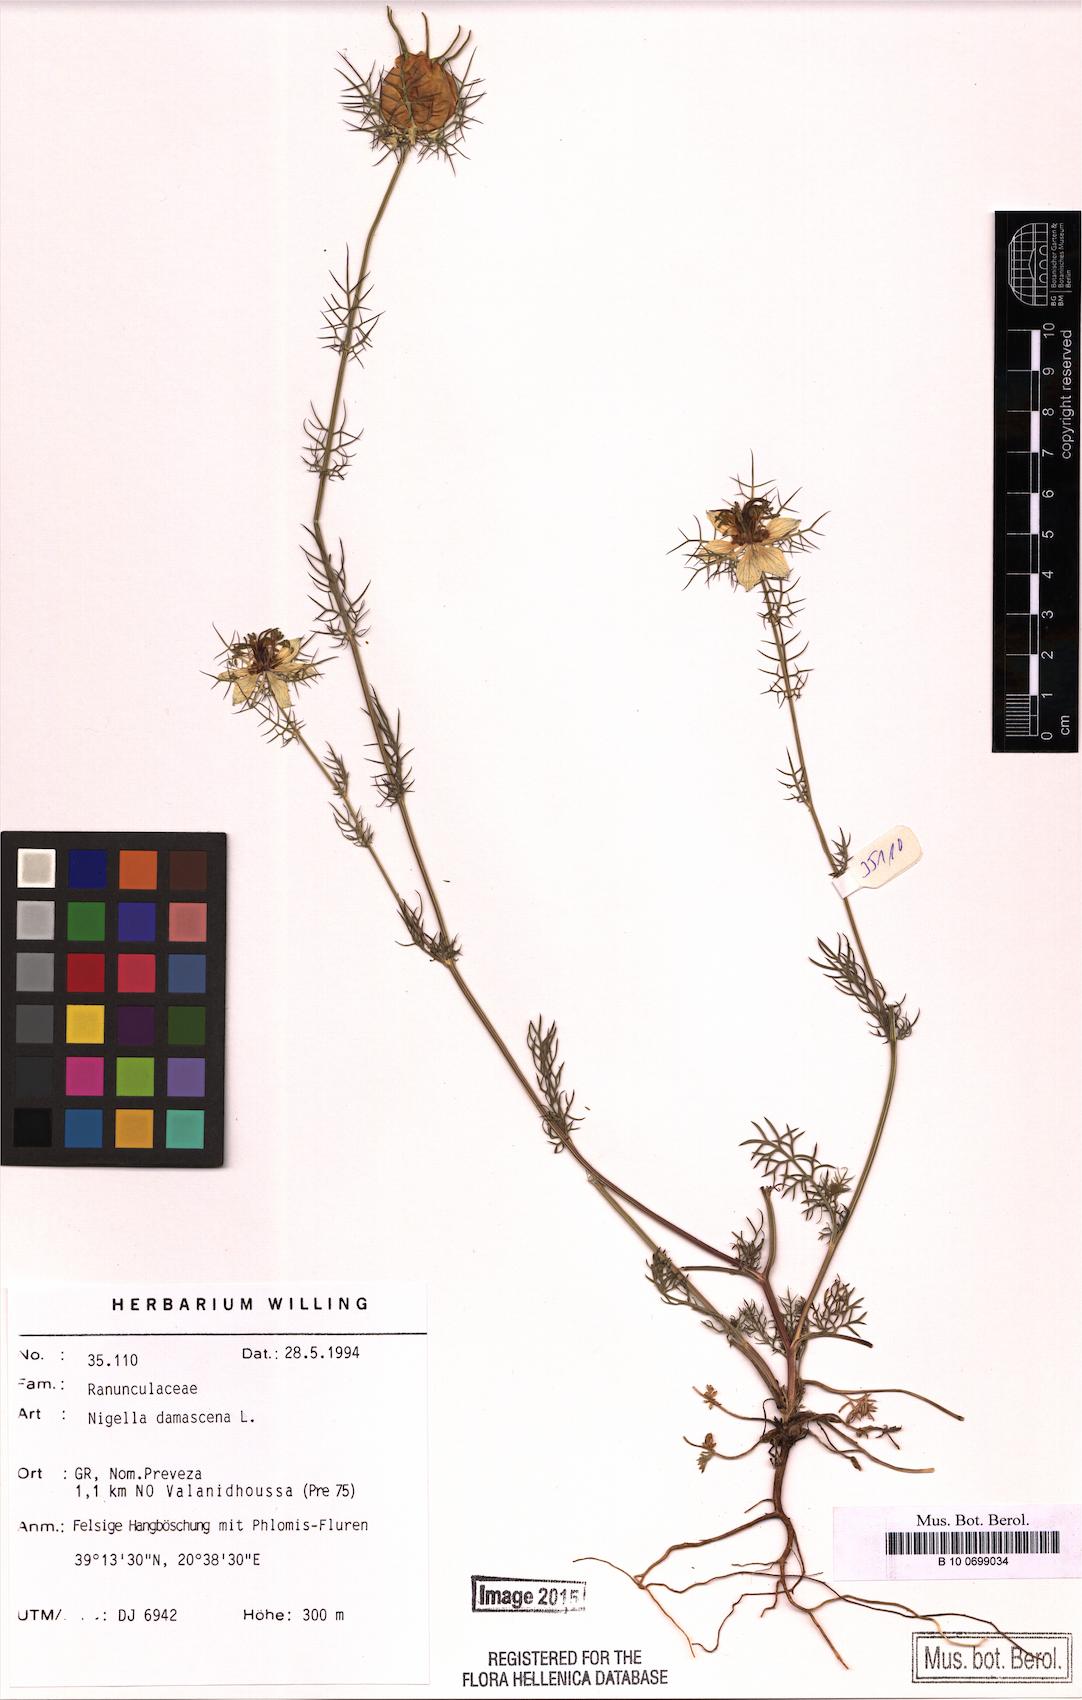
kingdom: Plantae
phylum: Tracheophyta
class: Magnoliopsida
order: Ranunculales
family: Ranunculaceae
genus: Nigella
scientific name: Nigella damascena
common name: Love-in-a-mist
